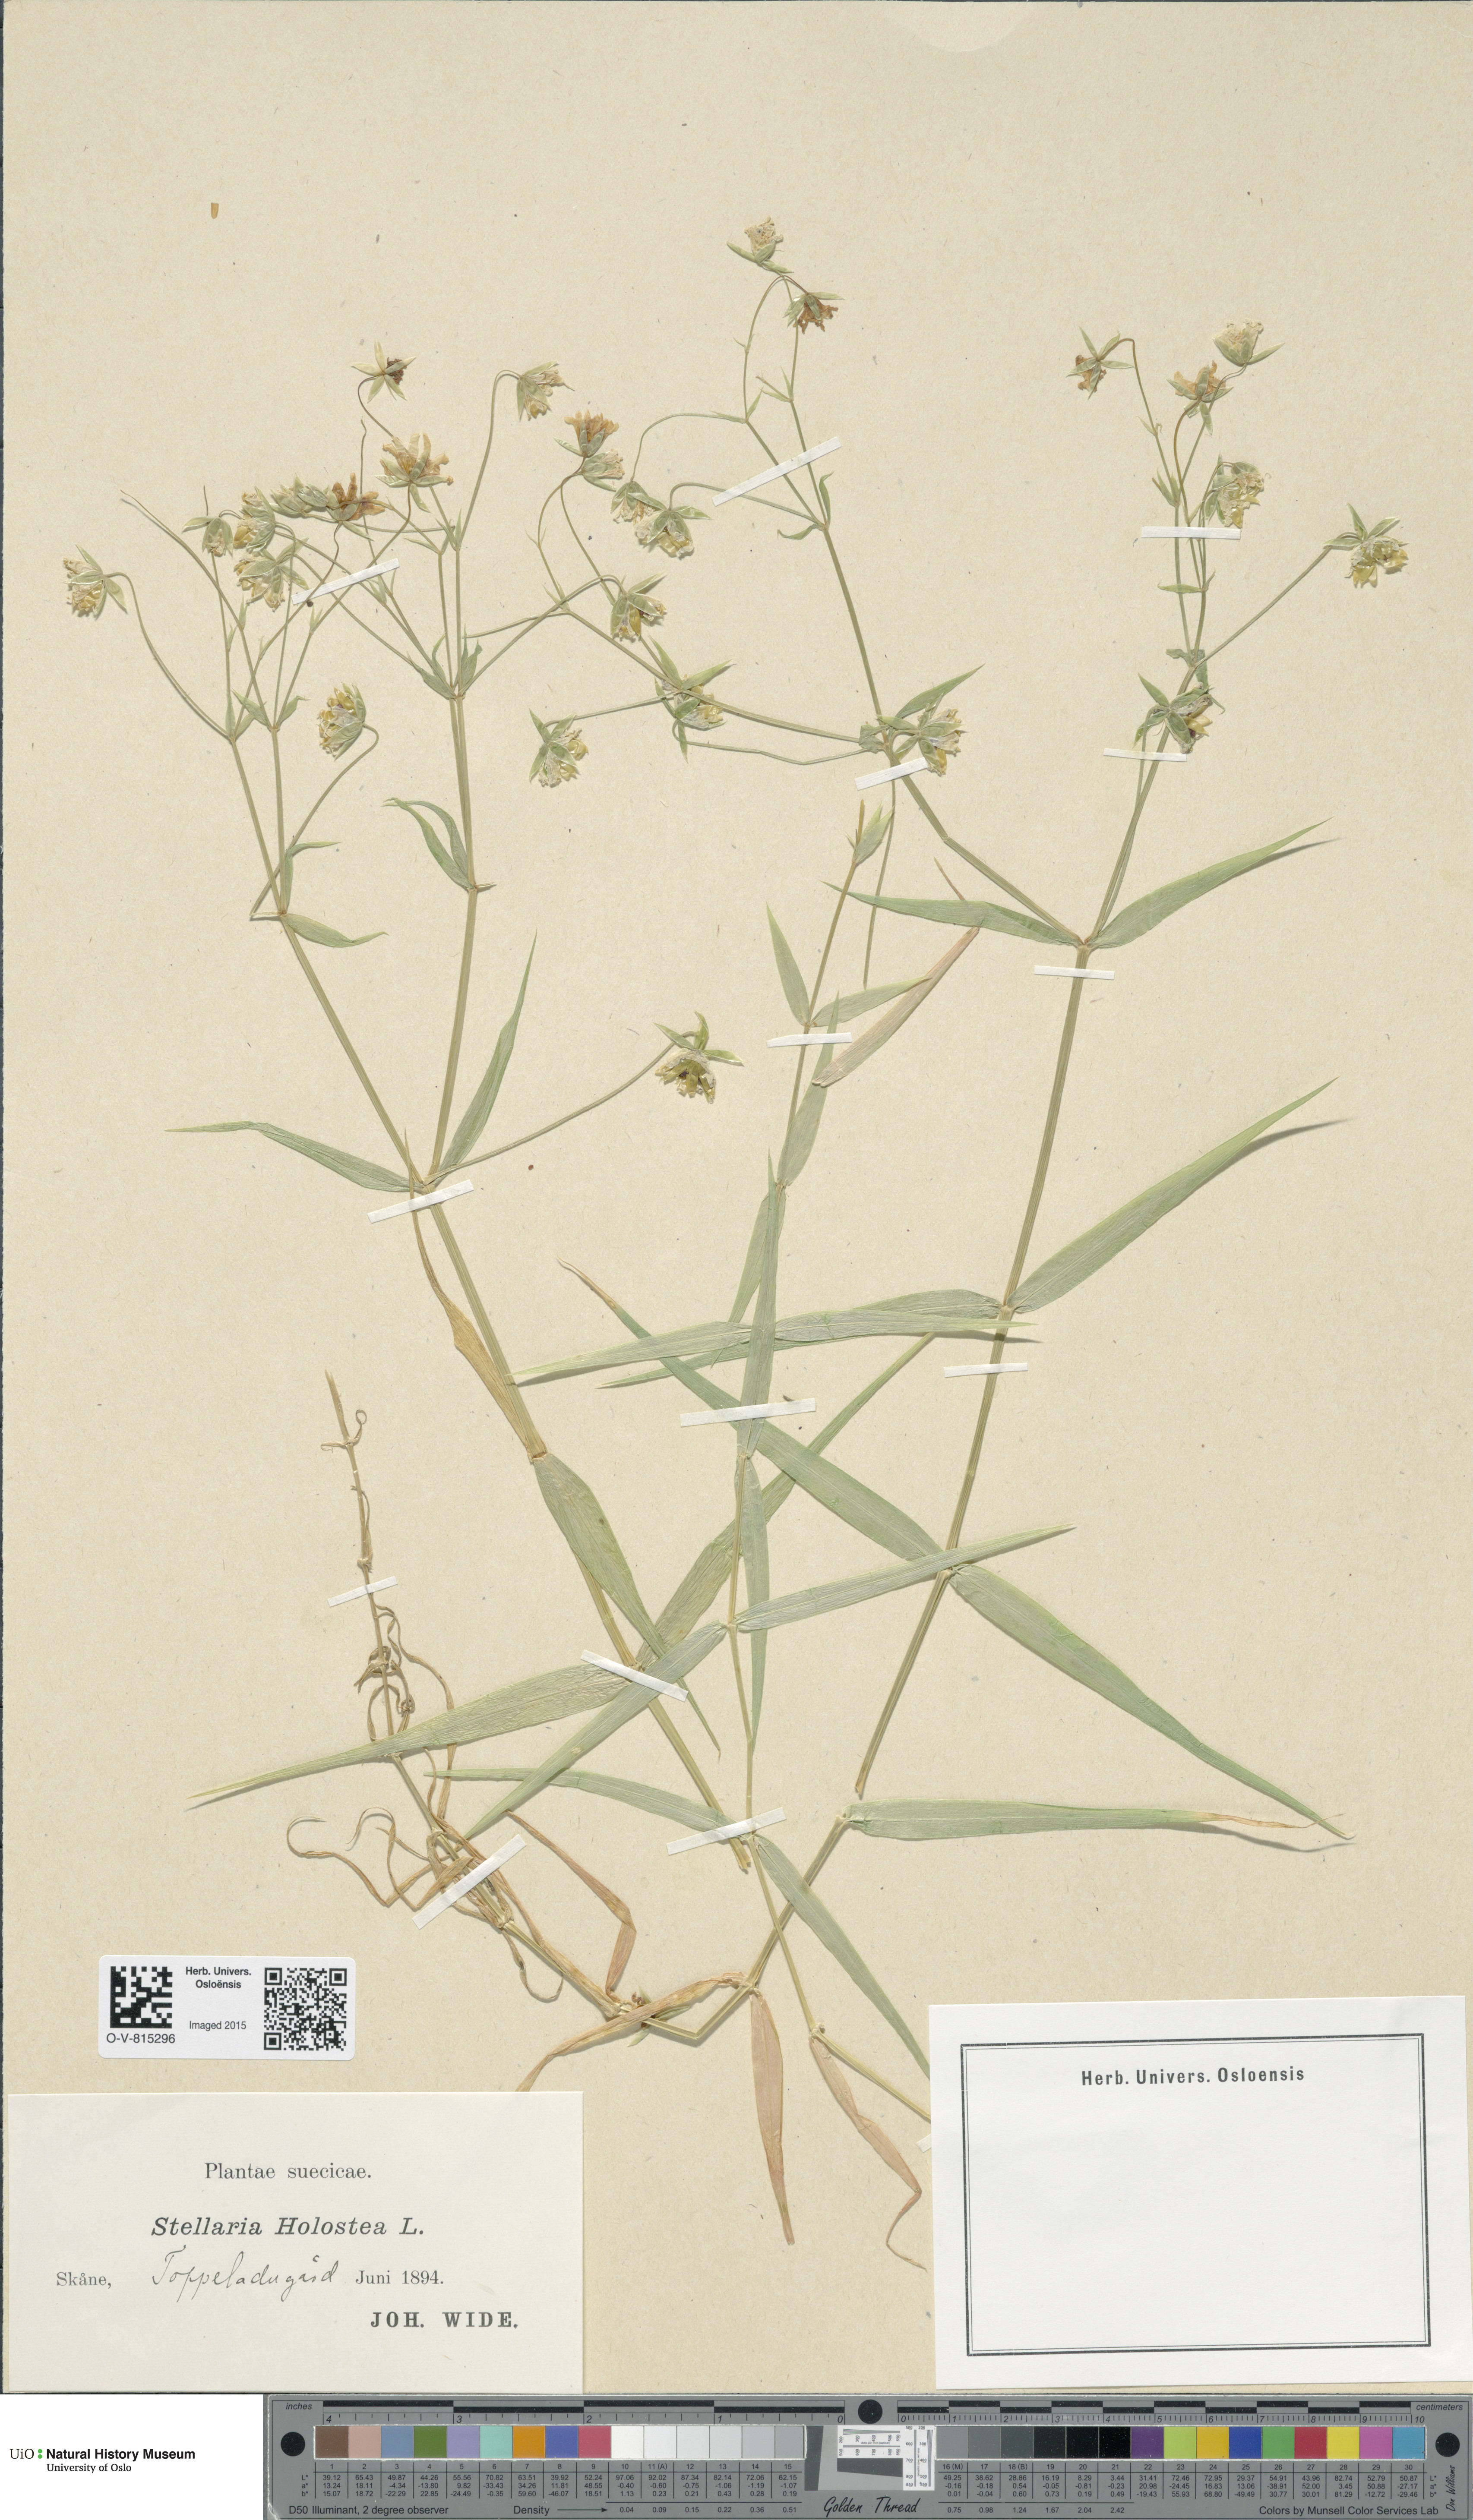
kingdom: Plantae
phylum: Tracheophyta
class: Magnoliopsida
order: Caryophyllales
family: Caryophyllaceae
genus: Rabelera
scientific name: Rabelera holostea
